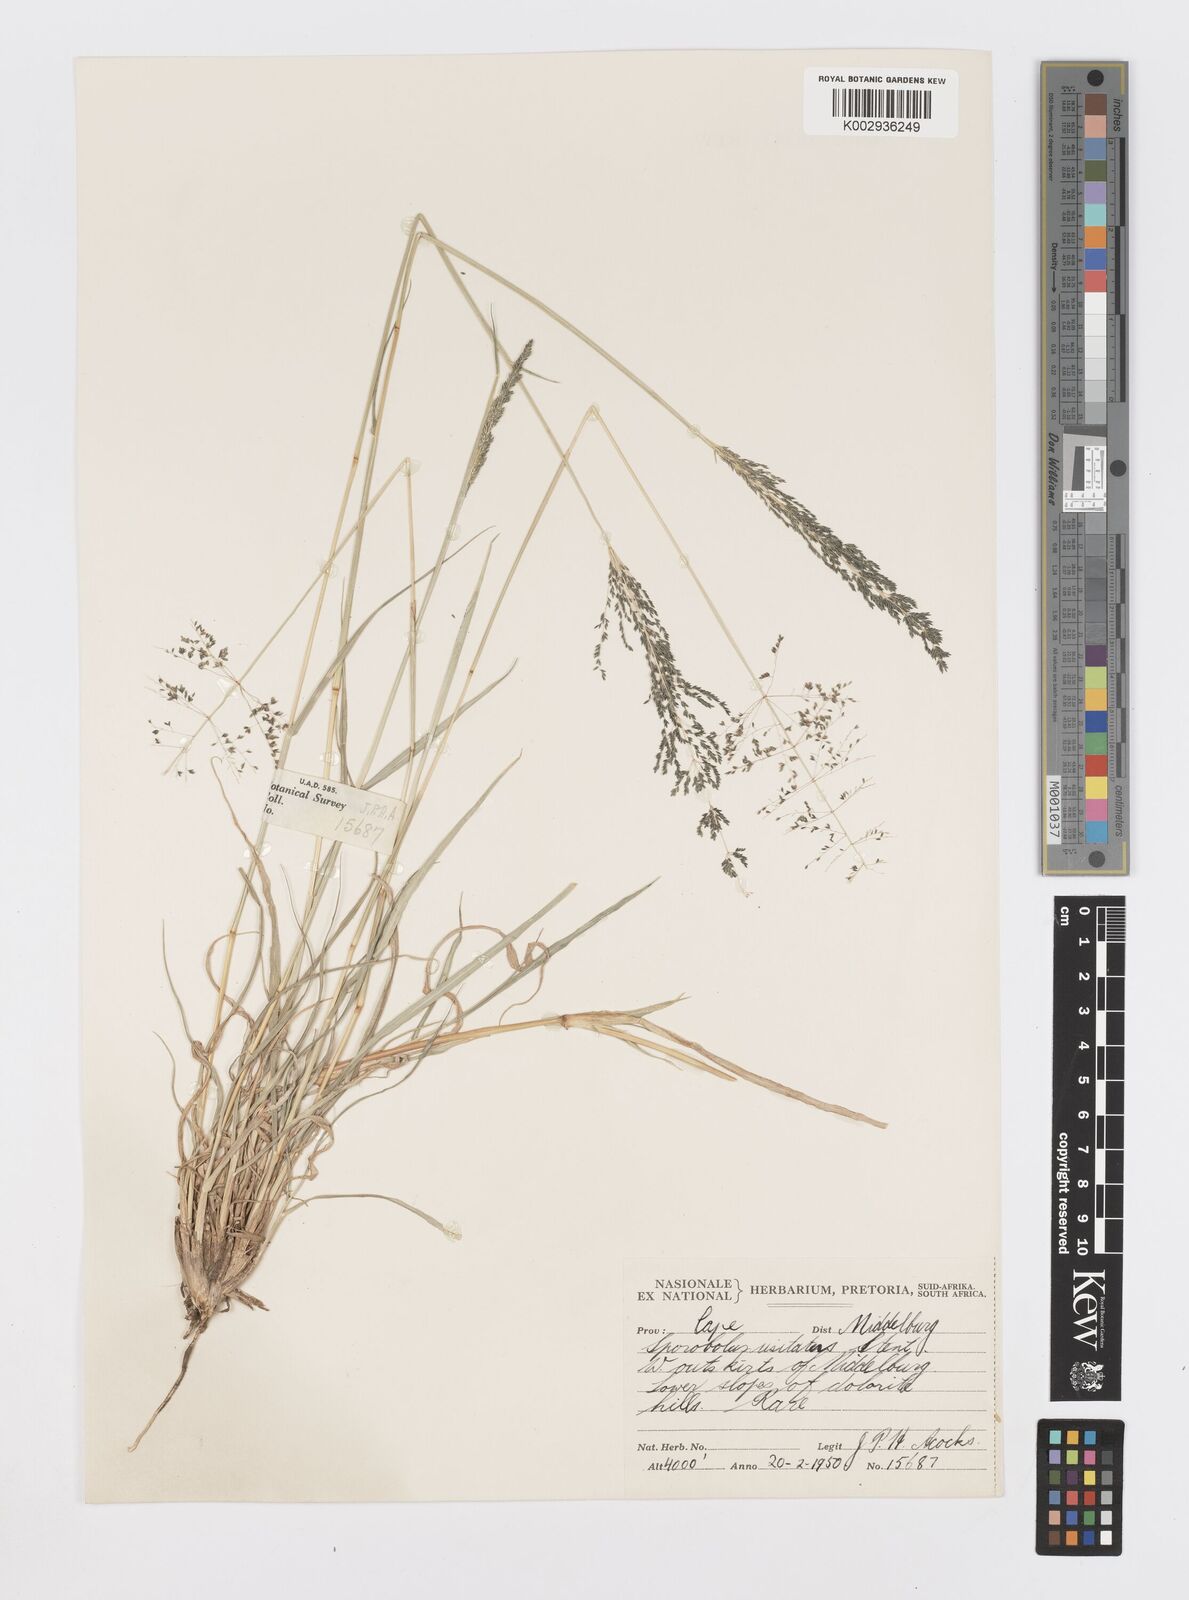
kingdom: Plantae
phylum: Tracheophyta
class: Liliopsida
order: Poales
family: Poaceae
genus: Sporobolus
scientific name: Sporobolus ioclados
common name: Pan dropseed
